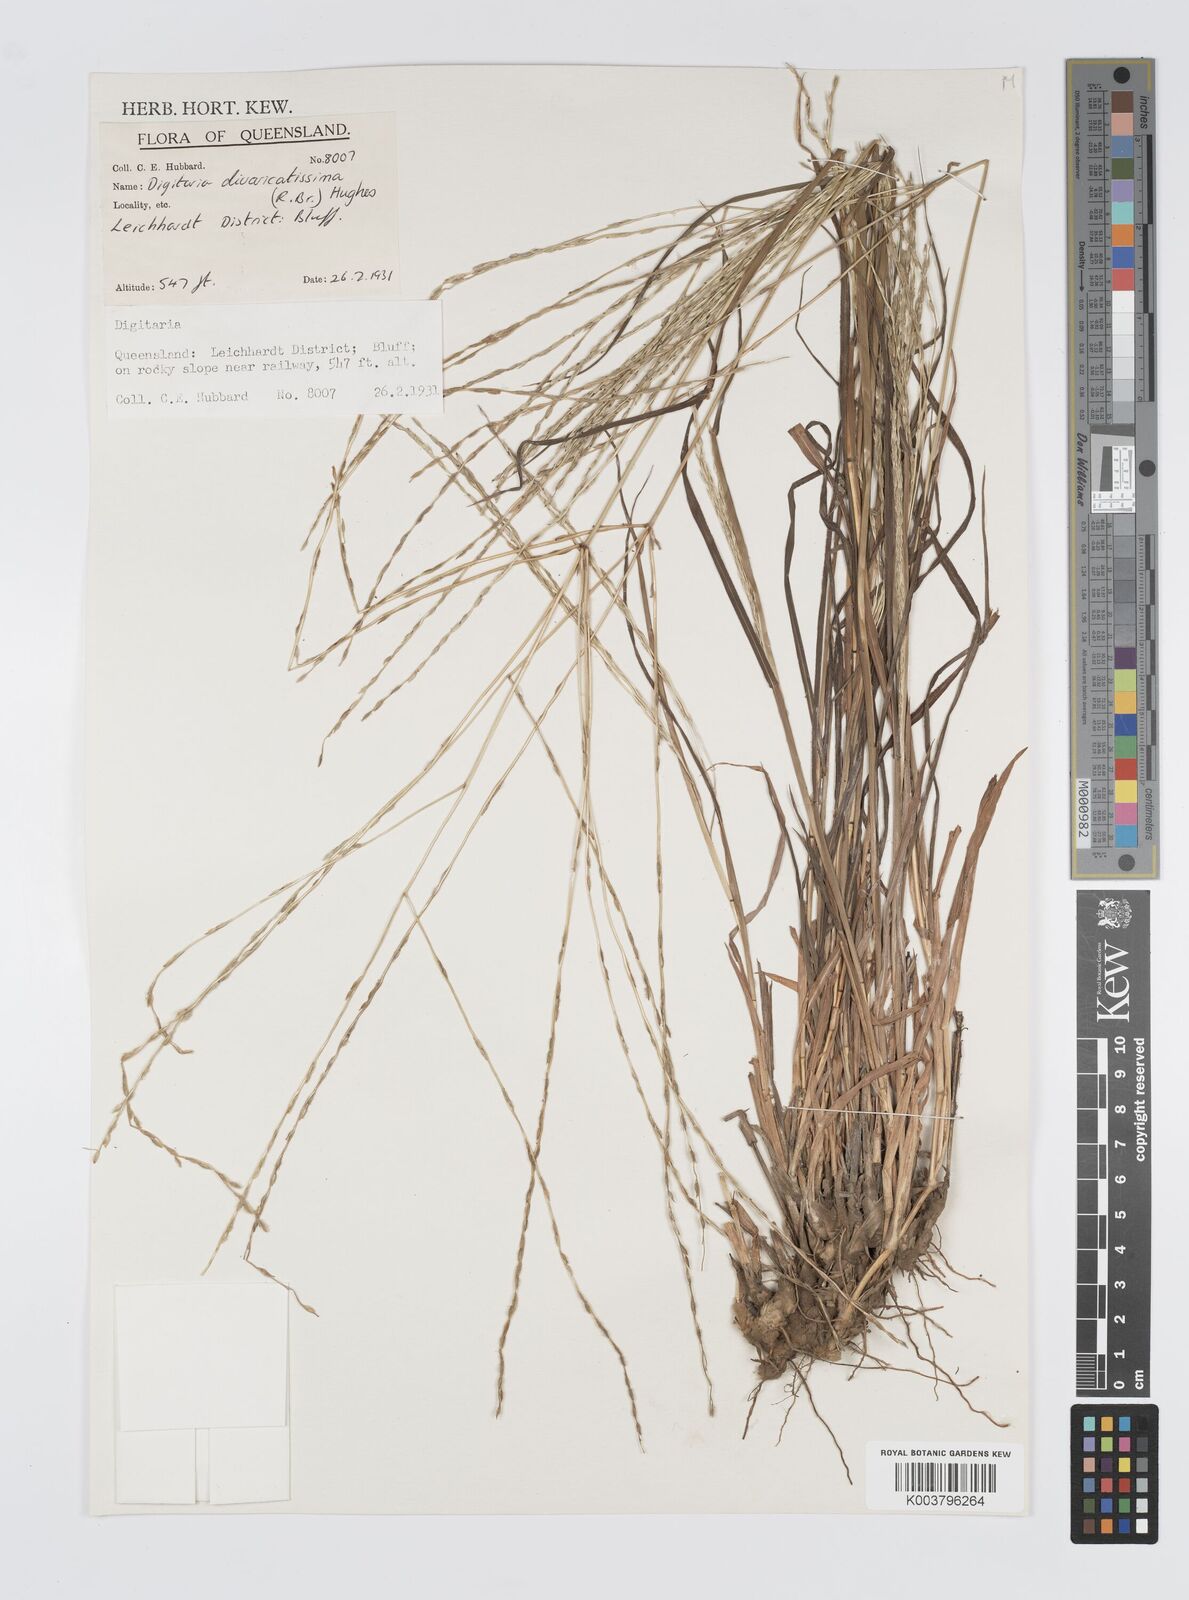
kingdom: Plantae
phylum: Tracheophyta
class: Liliopsida
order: Poales
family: Poaceae
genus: Digitaria
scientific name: Digitaria divaricatissima
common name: Crabgrass
